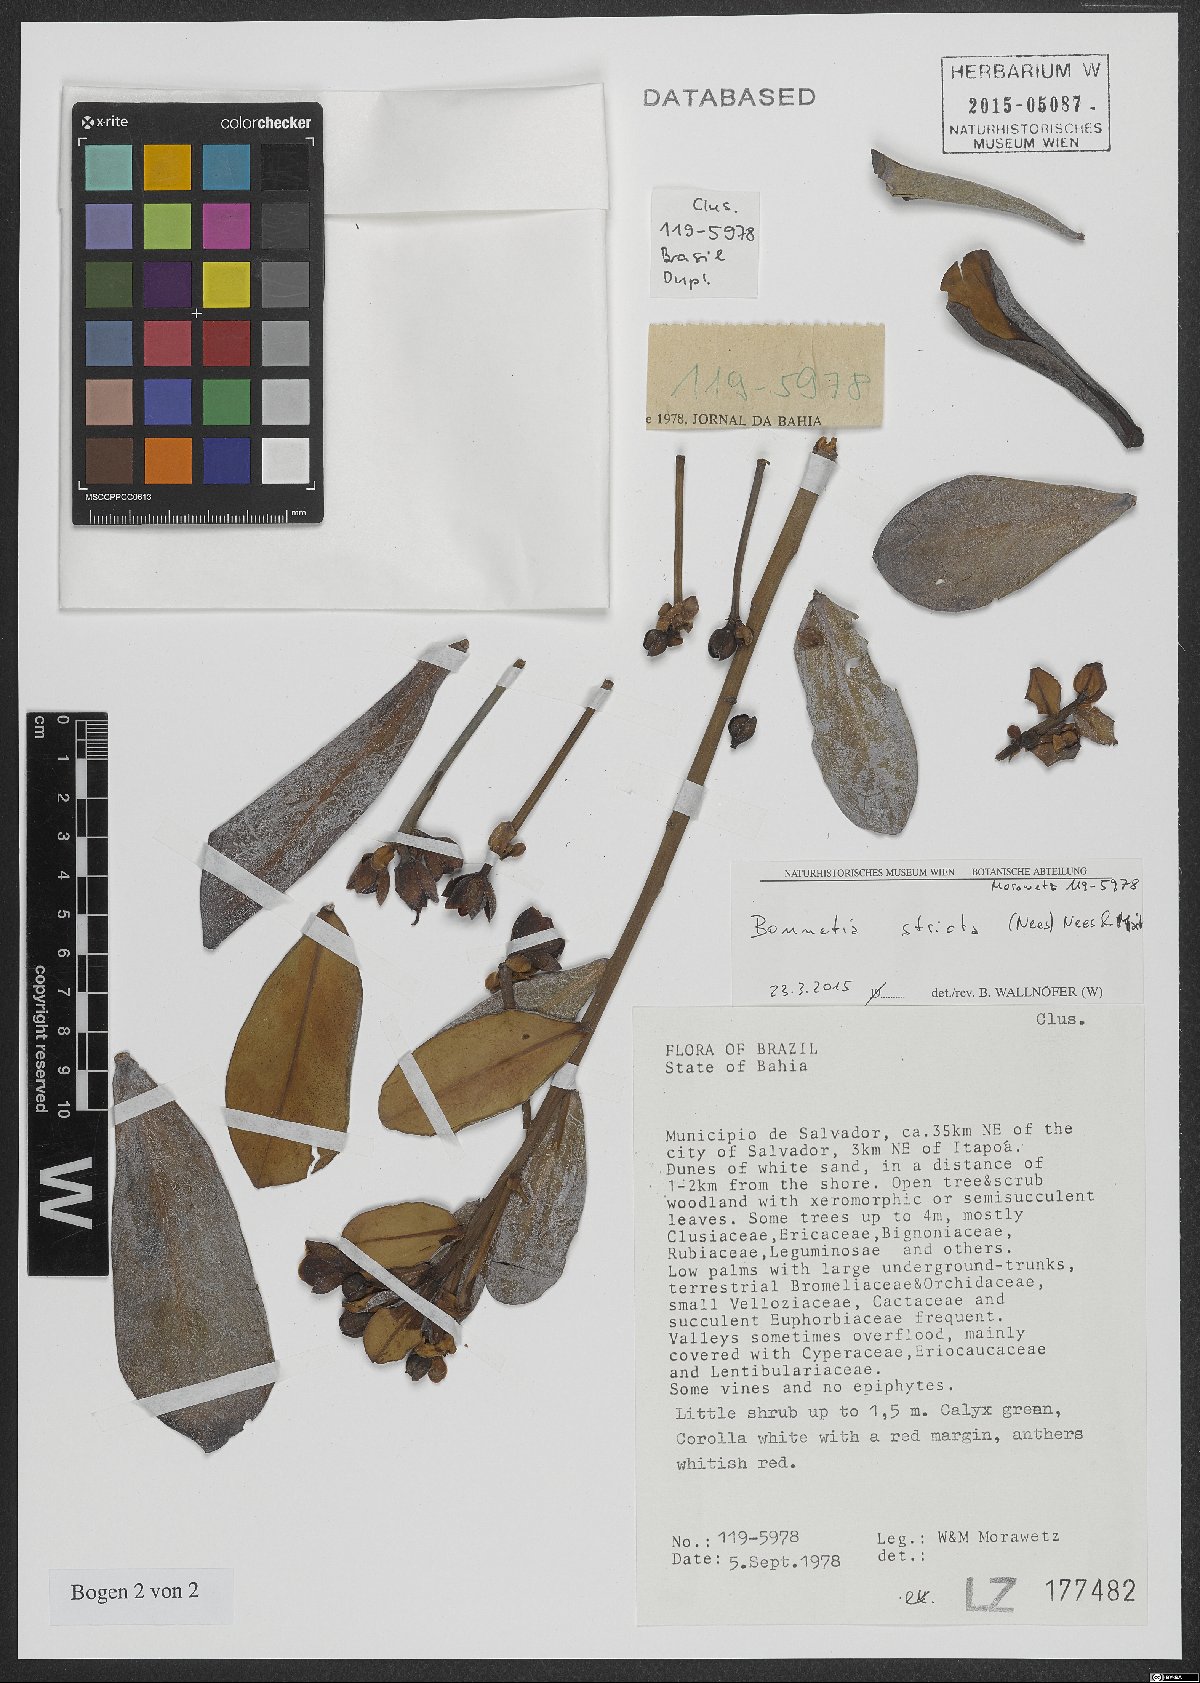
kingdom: Plantae
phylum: Tracheophyta
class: Magnoliopsida
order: Malpighiales
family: Bonnetiaceae
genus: Bonnetia
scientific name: Bonnetia stricta
